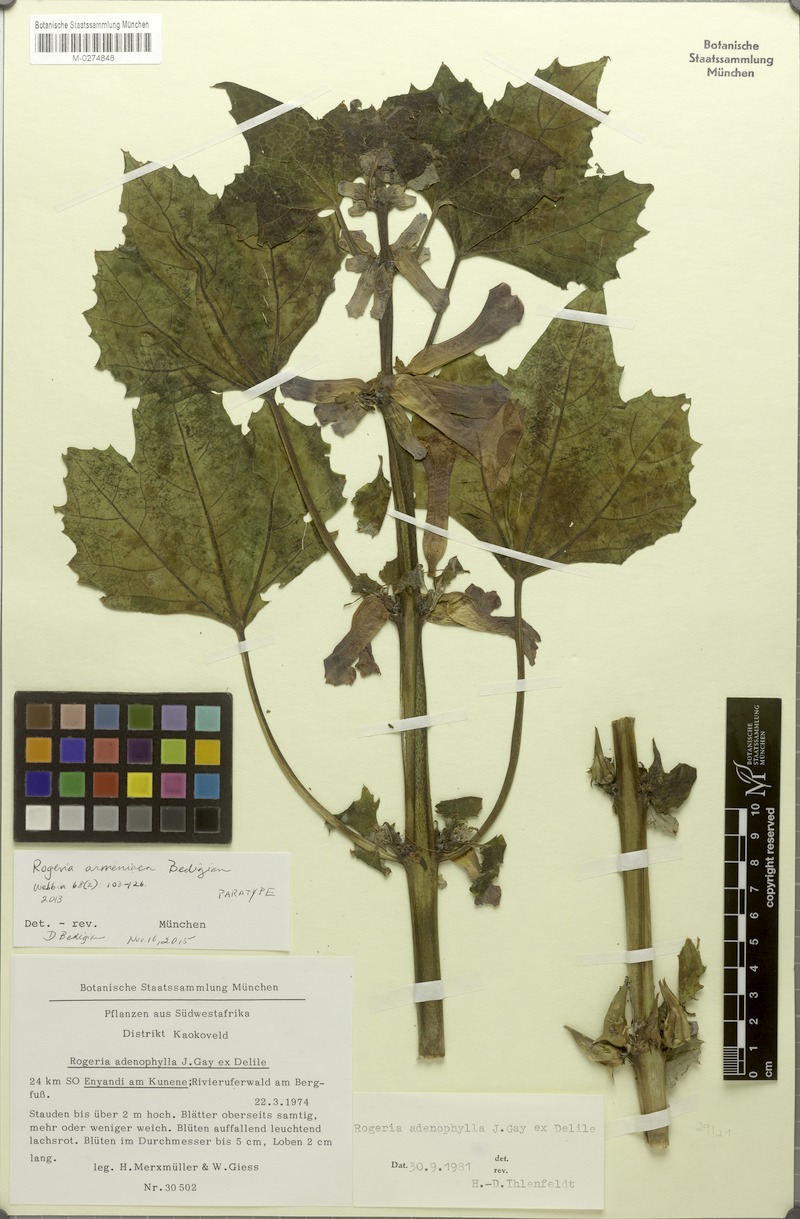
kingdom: Plantae
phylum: Tracheophyta
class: Magnoliopsida
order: Lamiales
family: Pedaliaceae
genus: Rogeria
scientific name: Rogeria adenophylla
